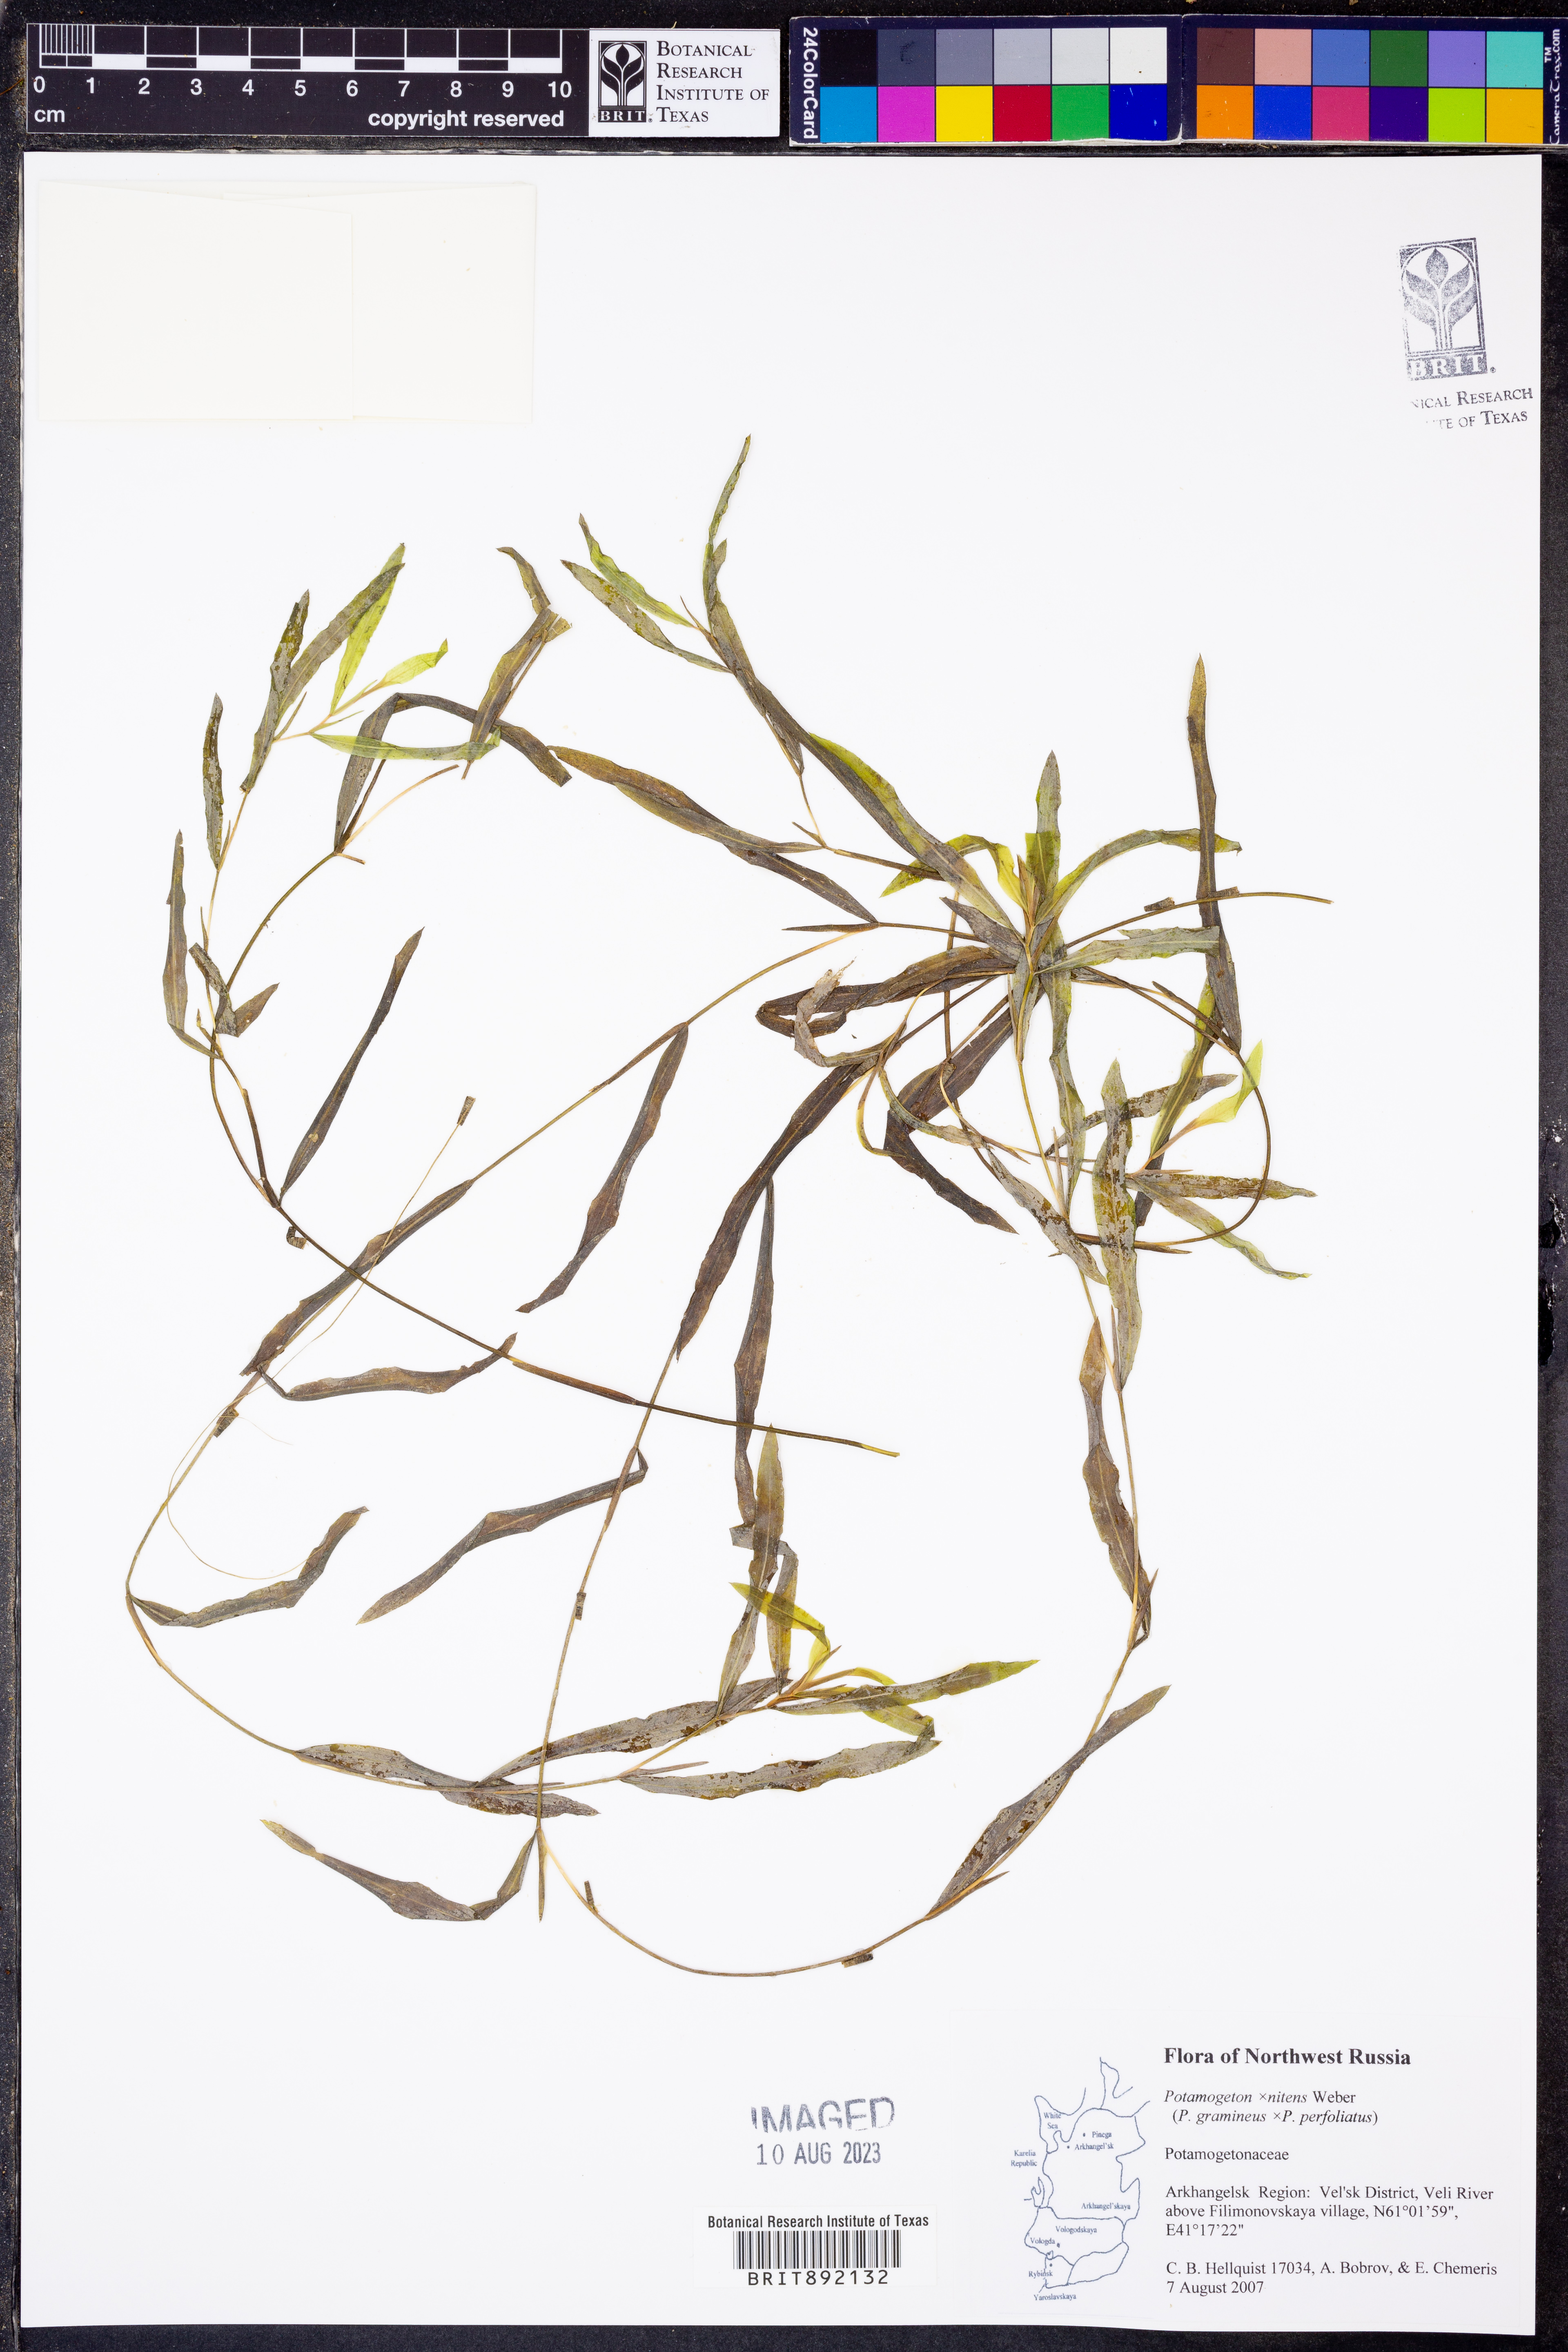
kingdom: Plantae
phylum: Tracheophyta
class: Liliopsida
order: Alismatales
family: Potamogetonaceae
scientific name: Potamogetonaceae
